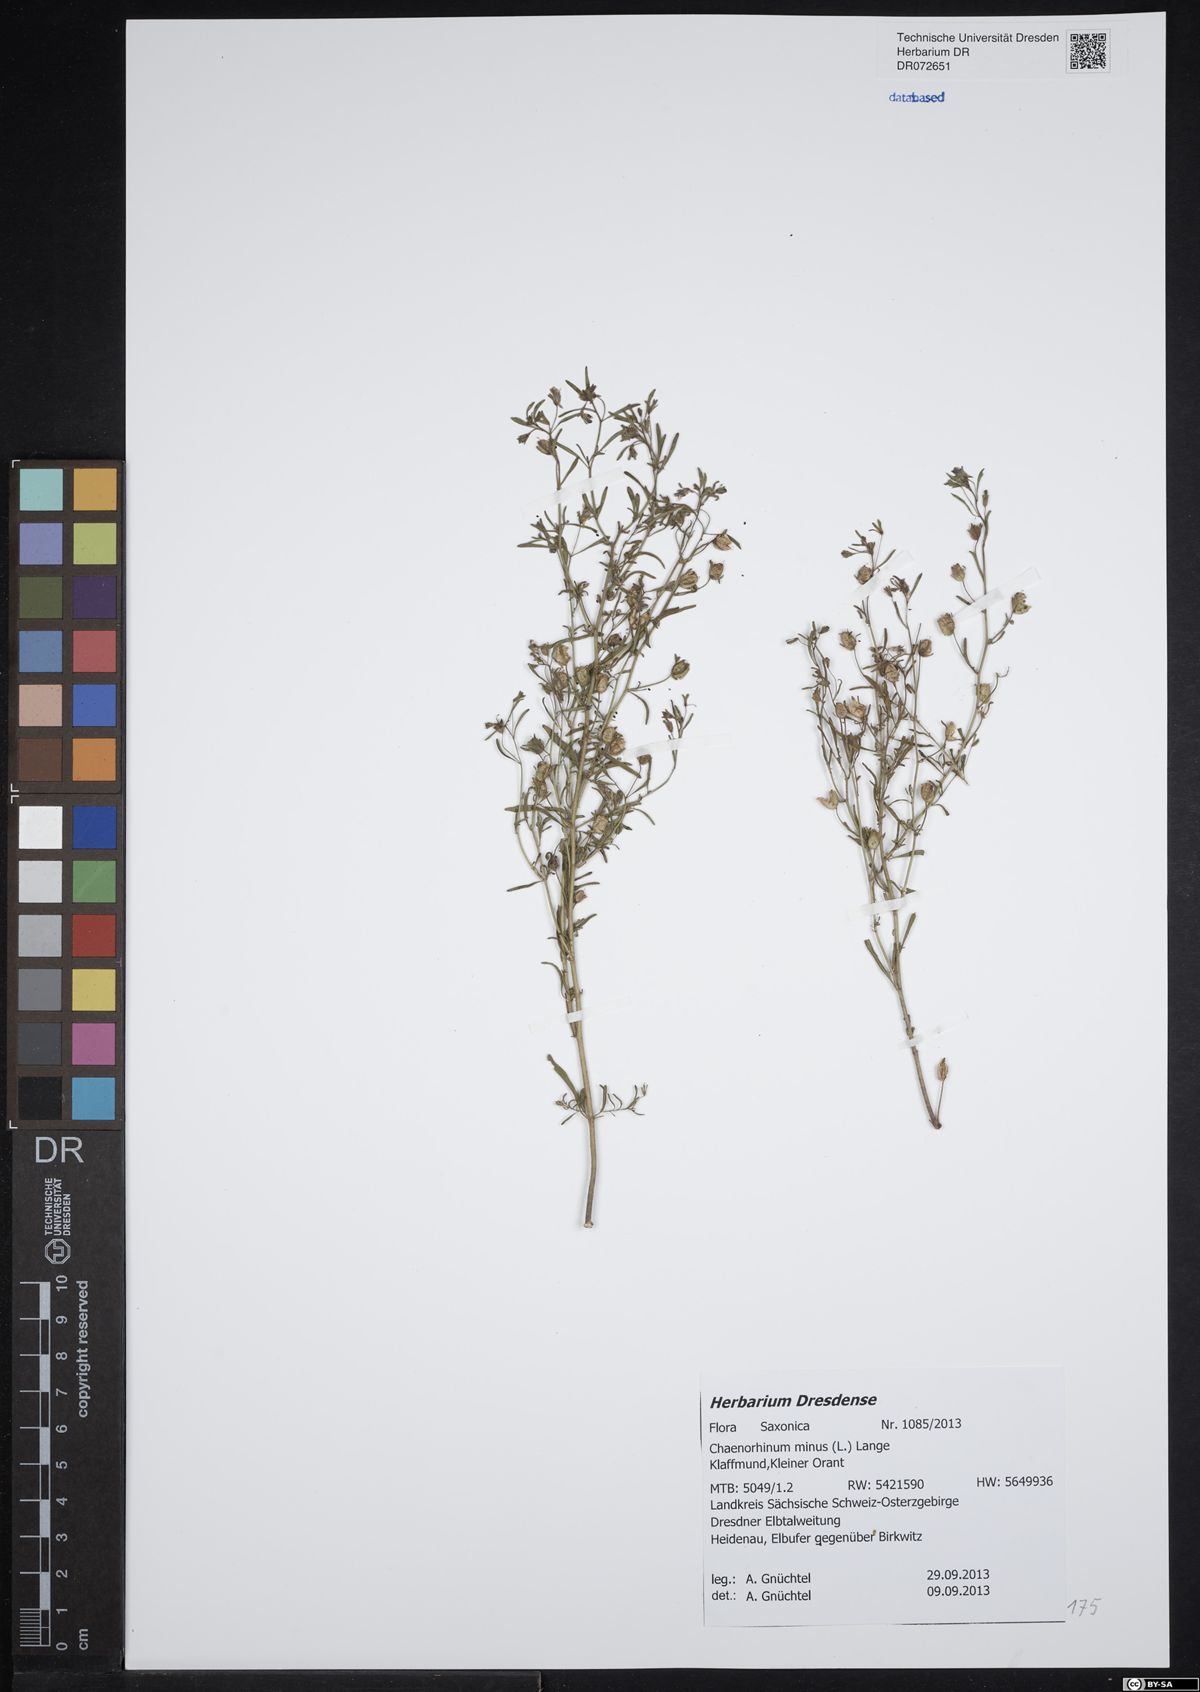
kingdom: Plantae
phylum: Tracheophyta
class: Magnoliopsida
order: Lamiales
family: Plantaginaceae
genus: Chaenorhinum
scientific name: Chaenorhinum minus
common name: Dwarf snapdragon
